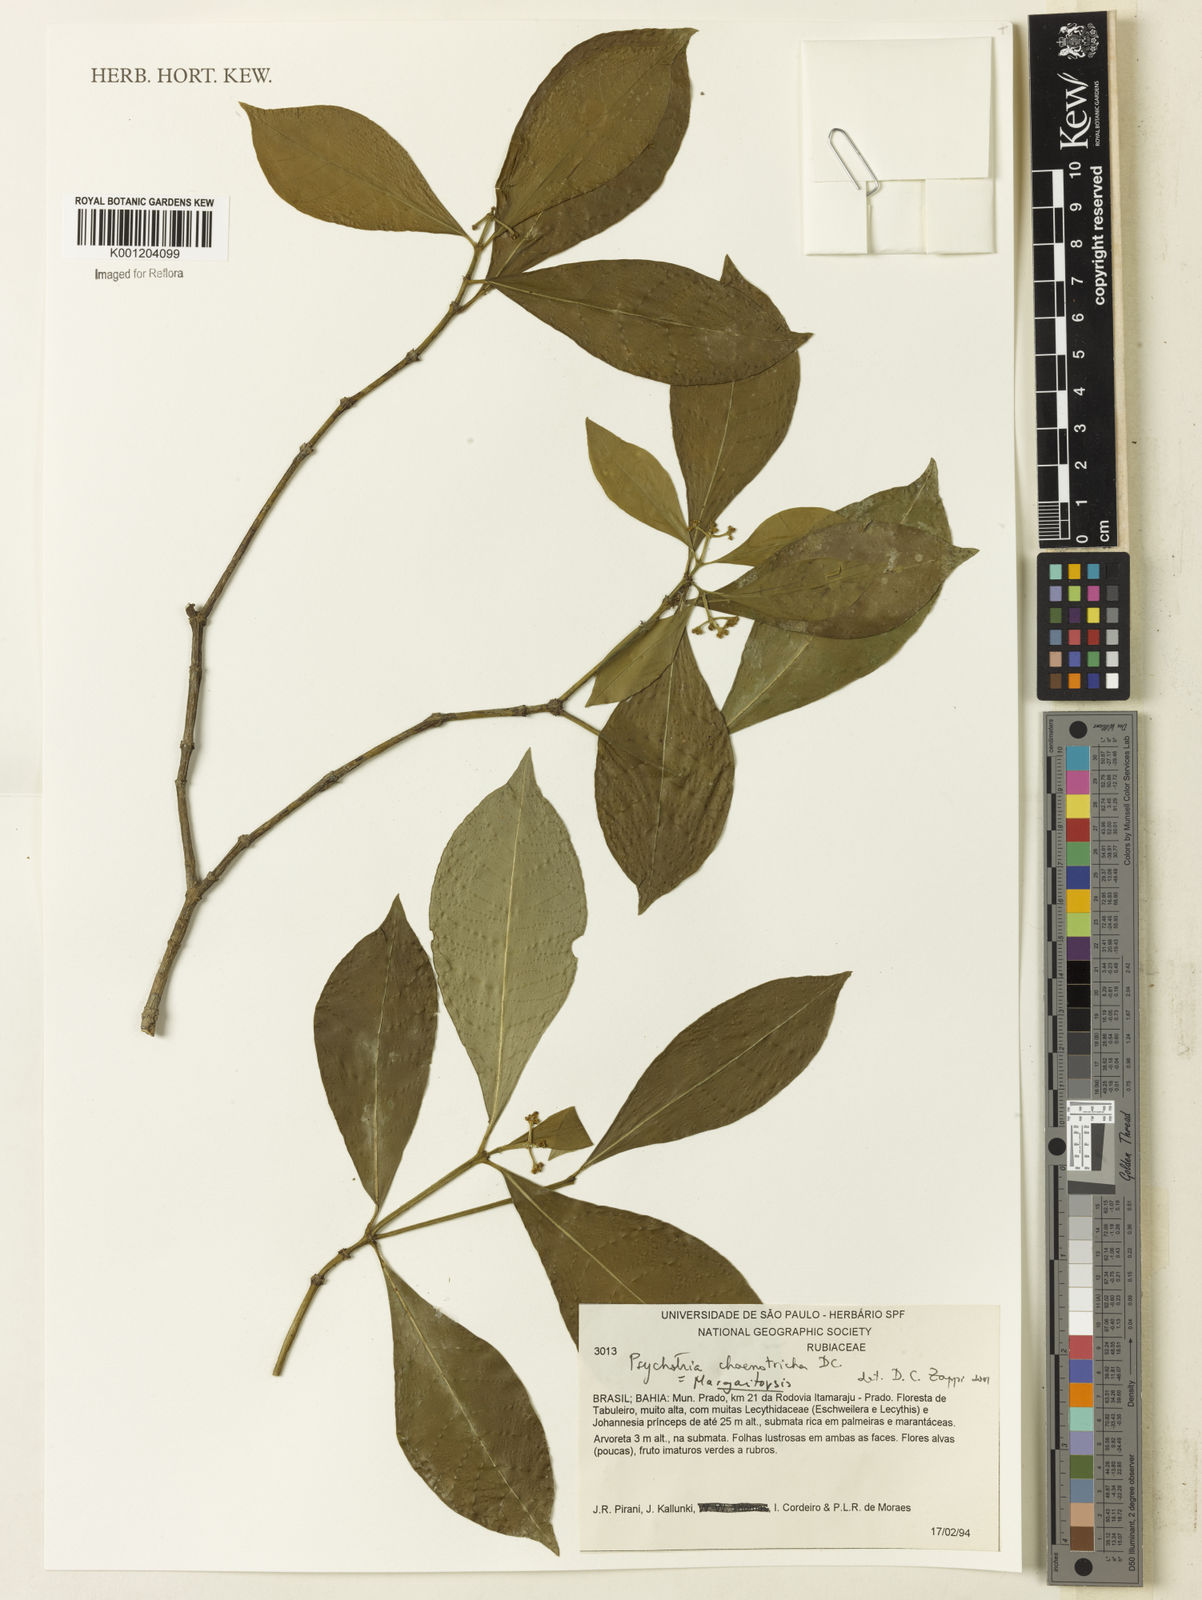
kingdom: Plantae
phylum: Tracheophyta
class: Magnoliopsida
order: Gentianales
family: Rubiaceae
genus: Eumachia
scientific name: Eumachia chaenotricha
